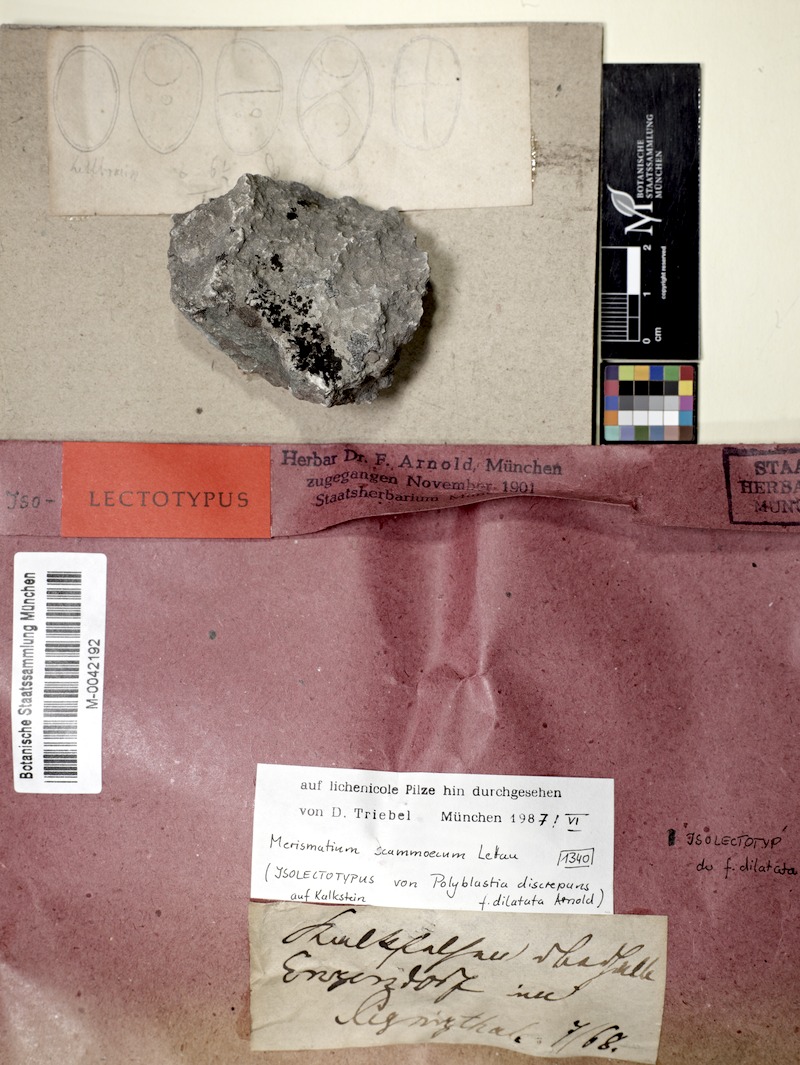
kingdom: Fungi
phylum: Ascomycota
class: Eurotiomycetes
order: Verrucariales
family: Verrucariaceae
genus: Halospora
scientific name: Halospora scammoeca
